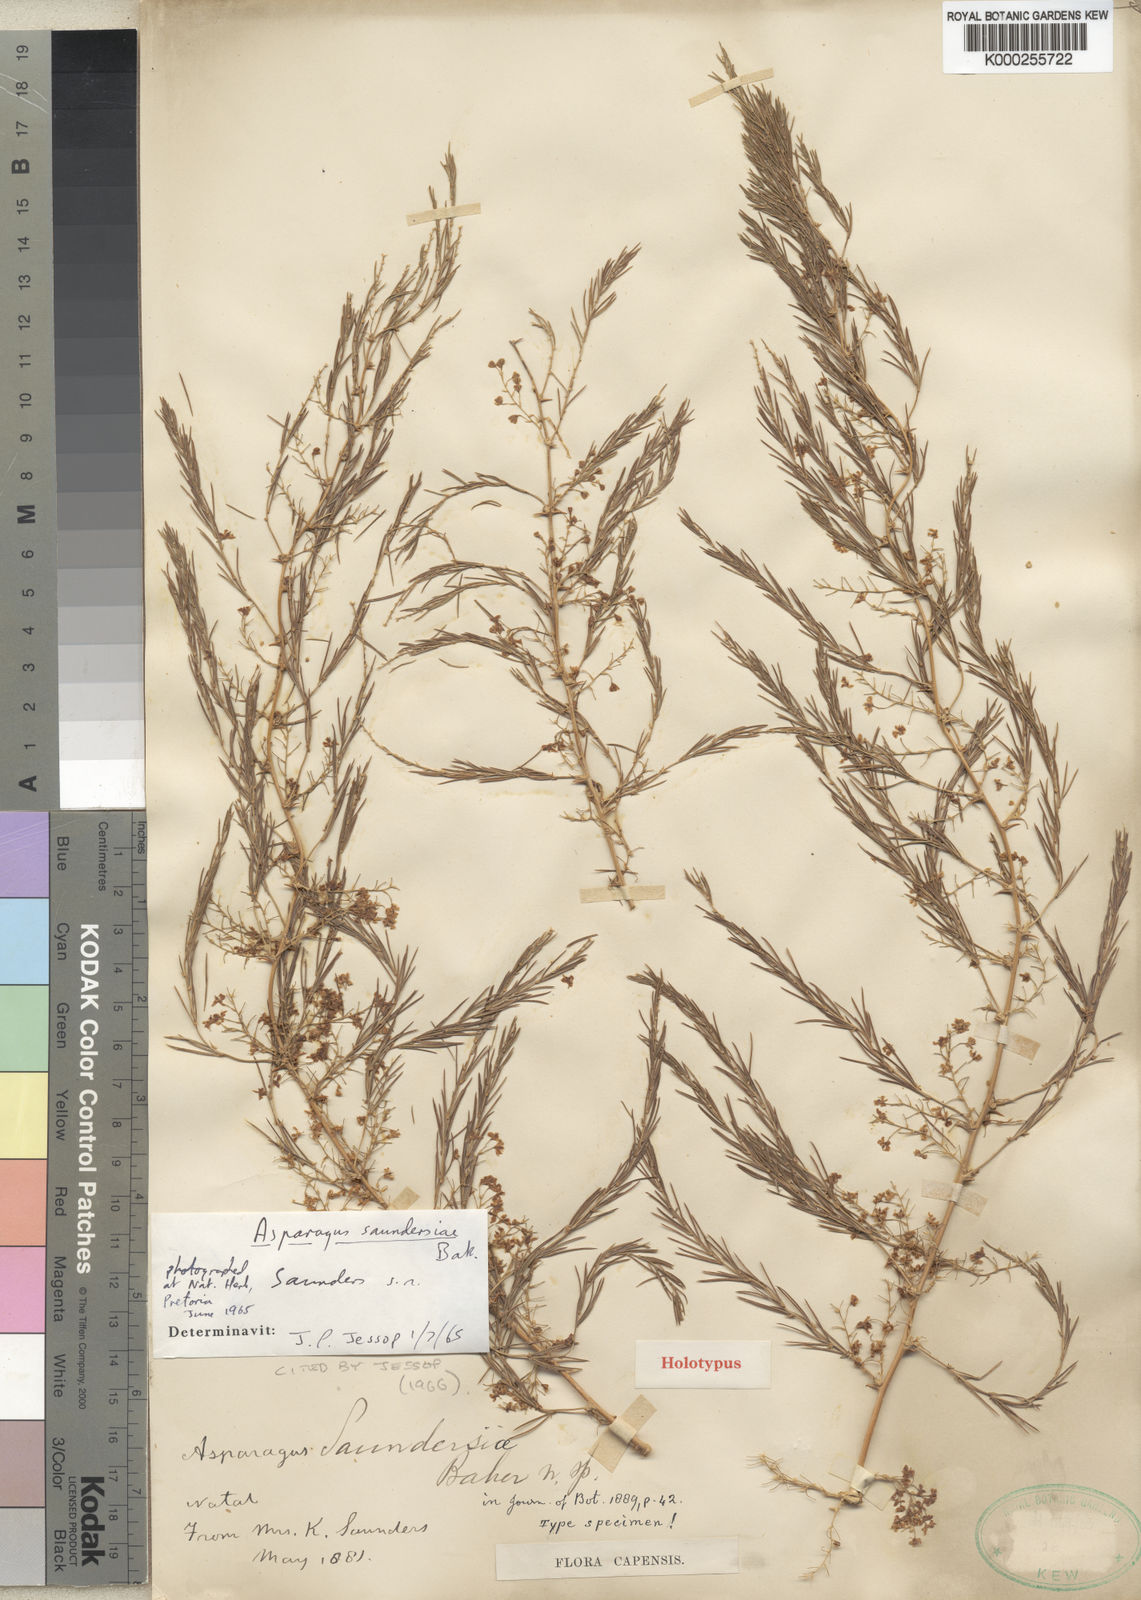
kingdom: Plantae
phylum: Tracheophyta
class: Liliopsida
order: Asparagales
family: Asparagaceae
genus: Asparagus
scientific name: Asparagus saundersiae
